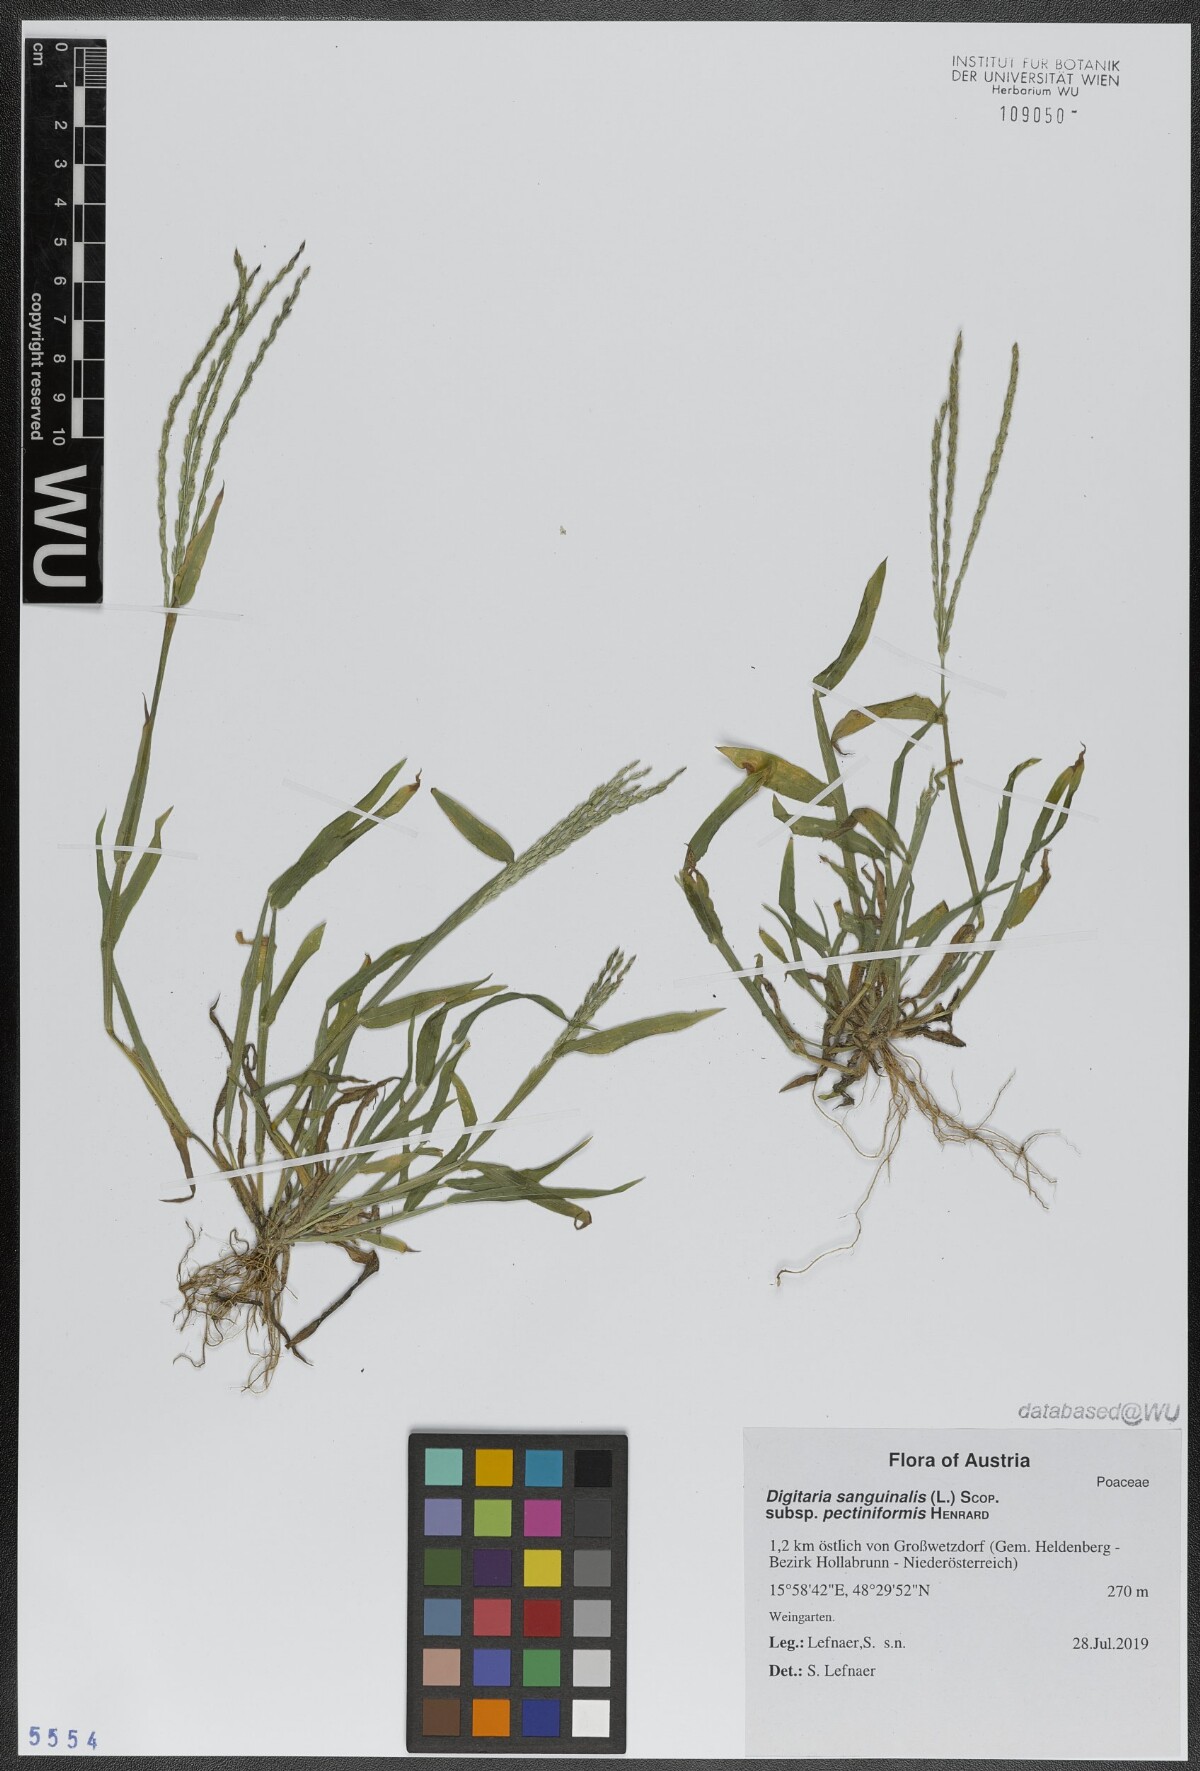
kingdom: Plantae
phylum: Tracheophyta
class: Liliopsida
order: Poales
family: Poaceae
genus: Digitaria
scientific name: Digitaria sanguinalis
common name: Hairy crabgrass
